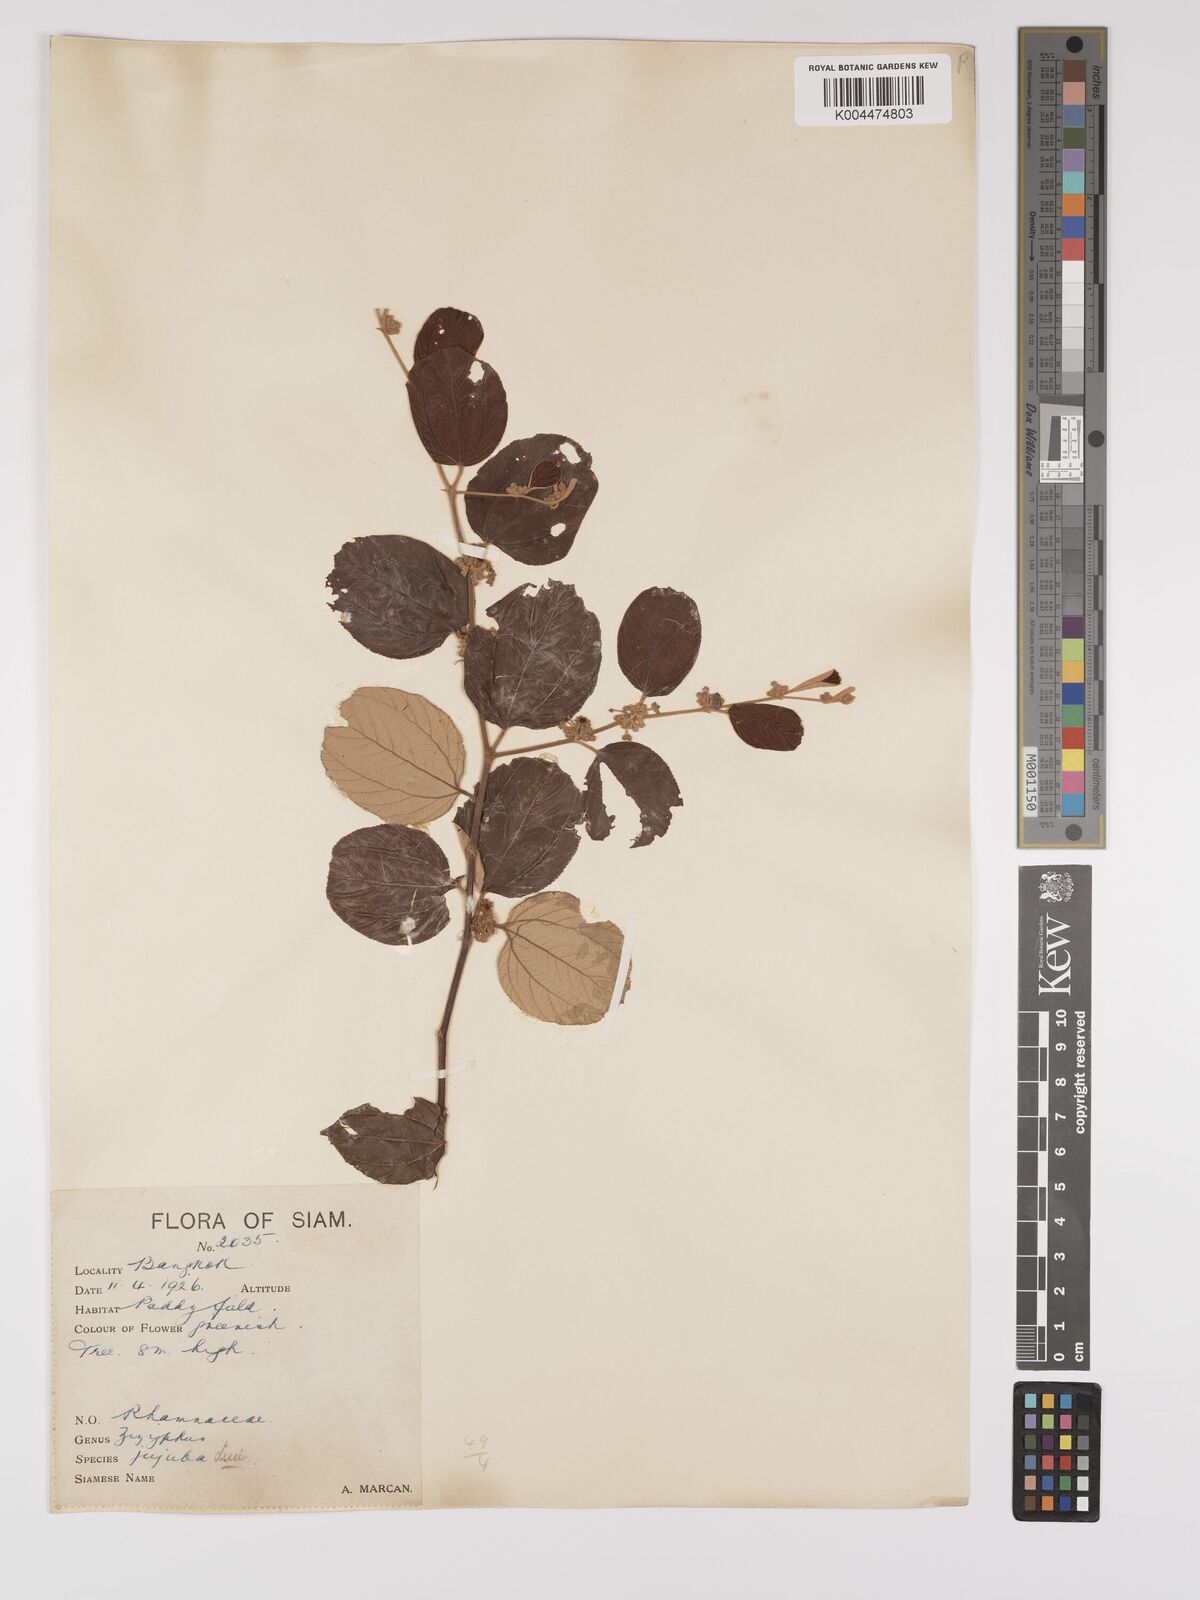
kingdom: Plantae
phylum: Tracheophyta
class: Magnoliopsida
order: Rosales
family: Rhamnaceae
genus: Ziziphus
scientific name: Ziziphus mauritiana
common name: Indian jujube
